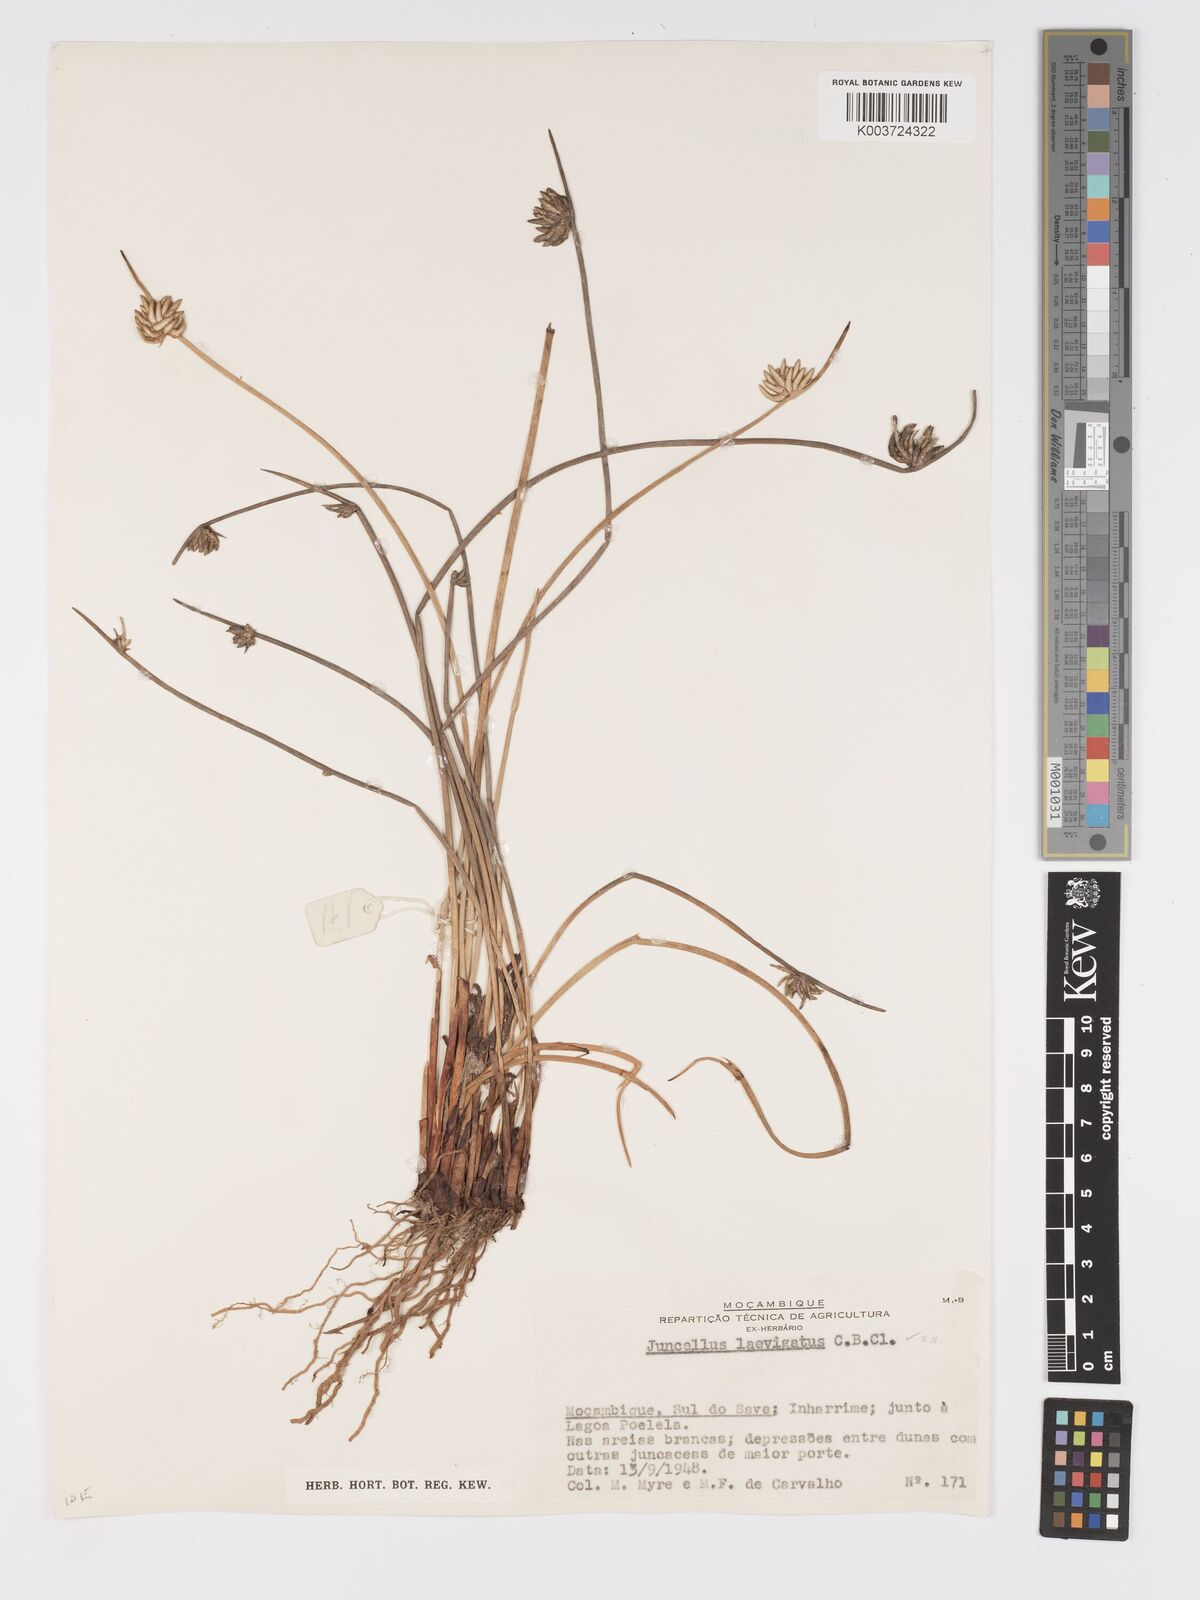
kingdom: Plantae
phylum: Tracheophyta
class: Liliopsida
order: Poales
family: Cyperaceae
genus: Cyperus
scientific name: Cyperus laevigatus
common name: Smooth flat sedge
